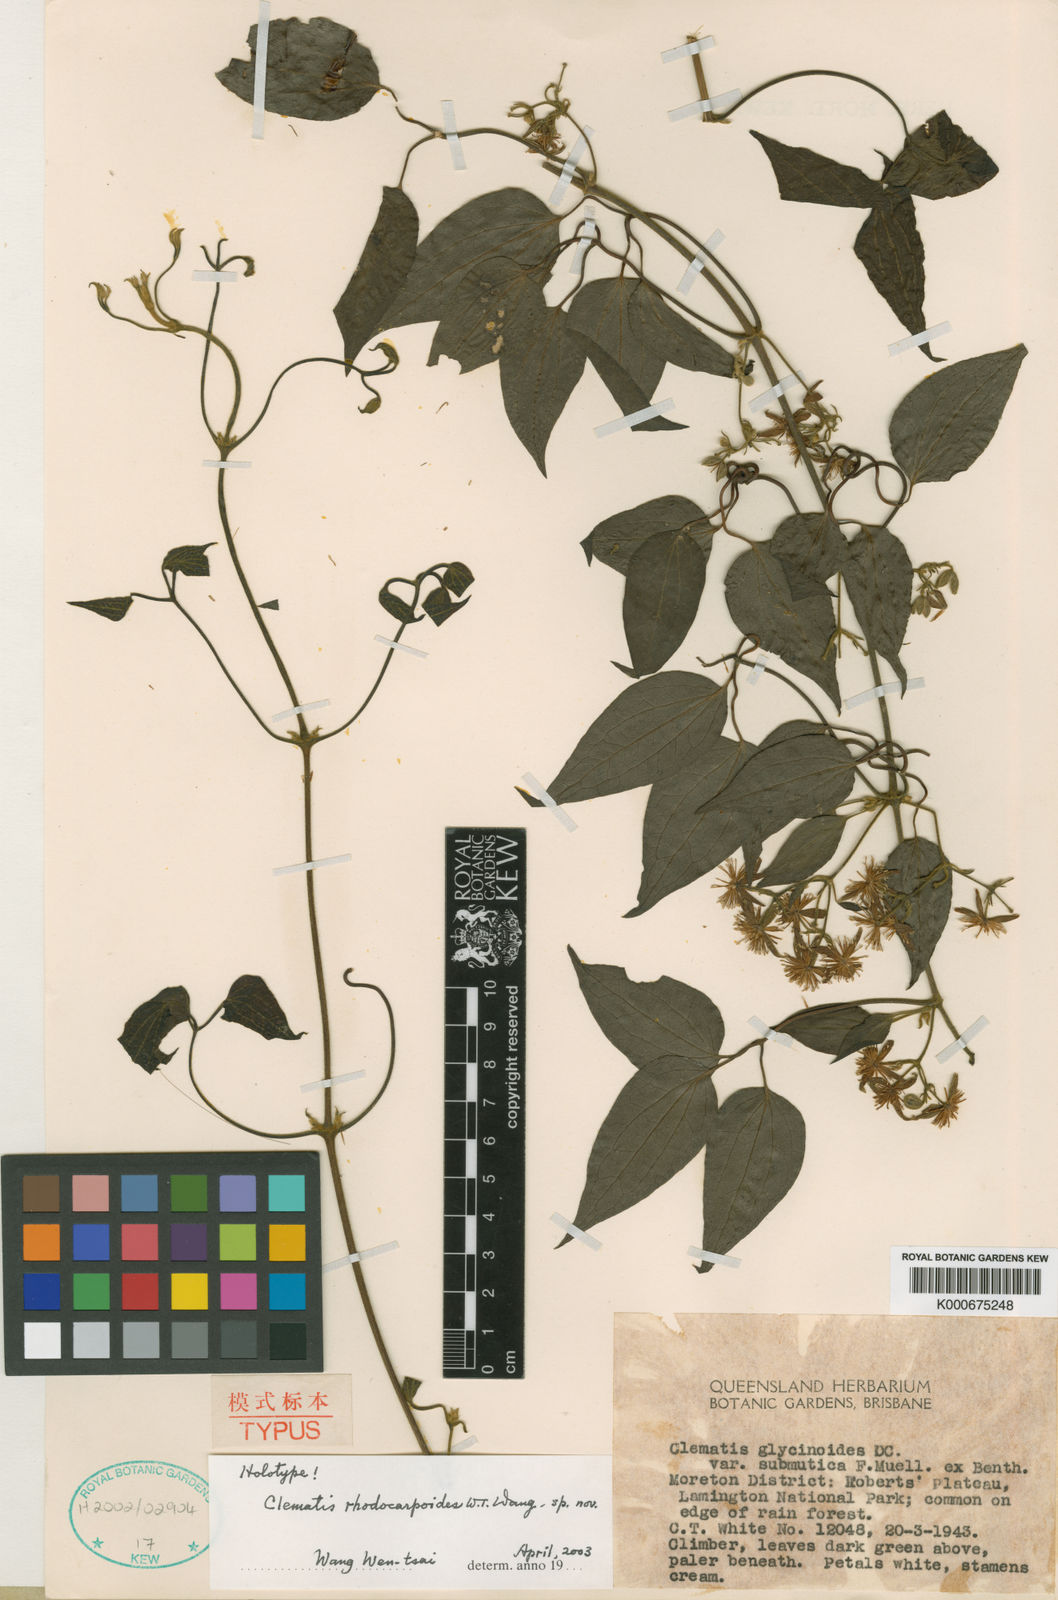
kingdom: Plantae
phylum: Tracheophyta
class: Magnoliopsida
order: Ranunculales
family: Ranunculaceae
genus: Clematis
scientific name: Clematis pickeringii
